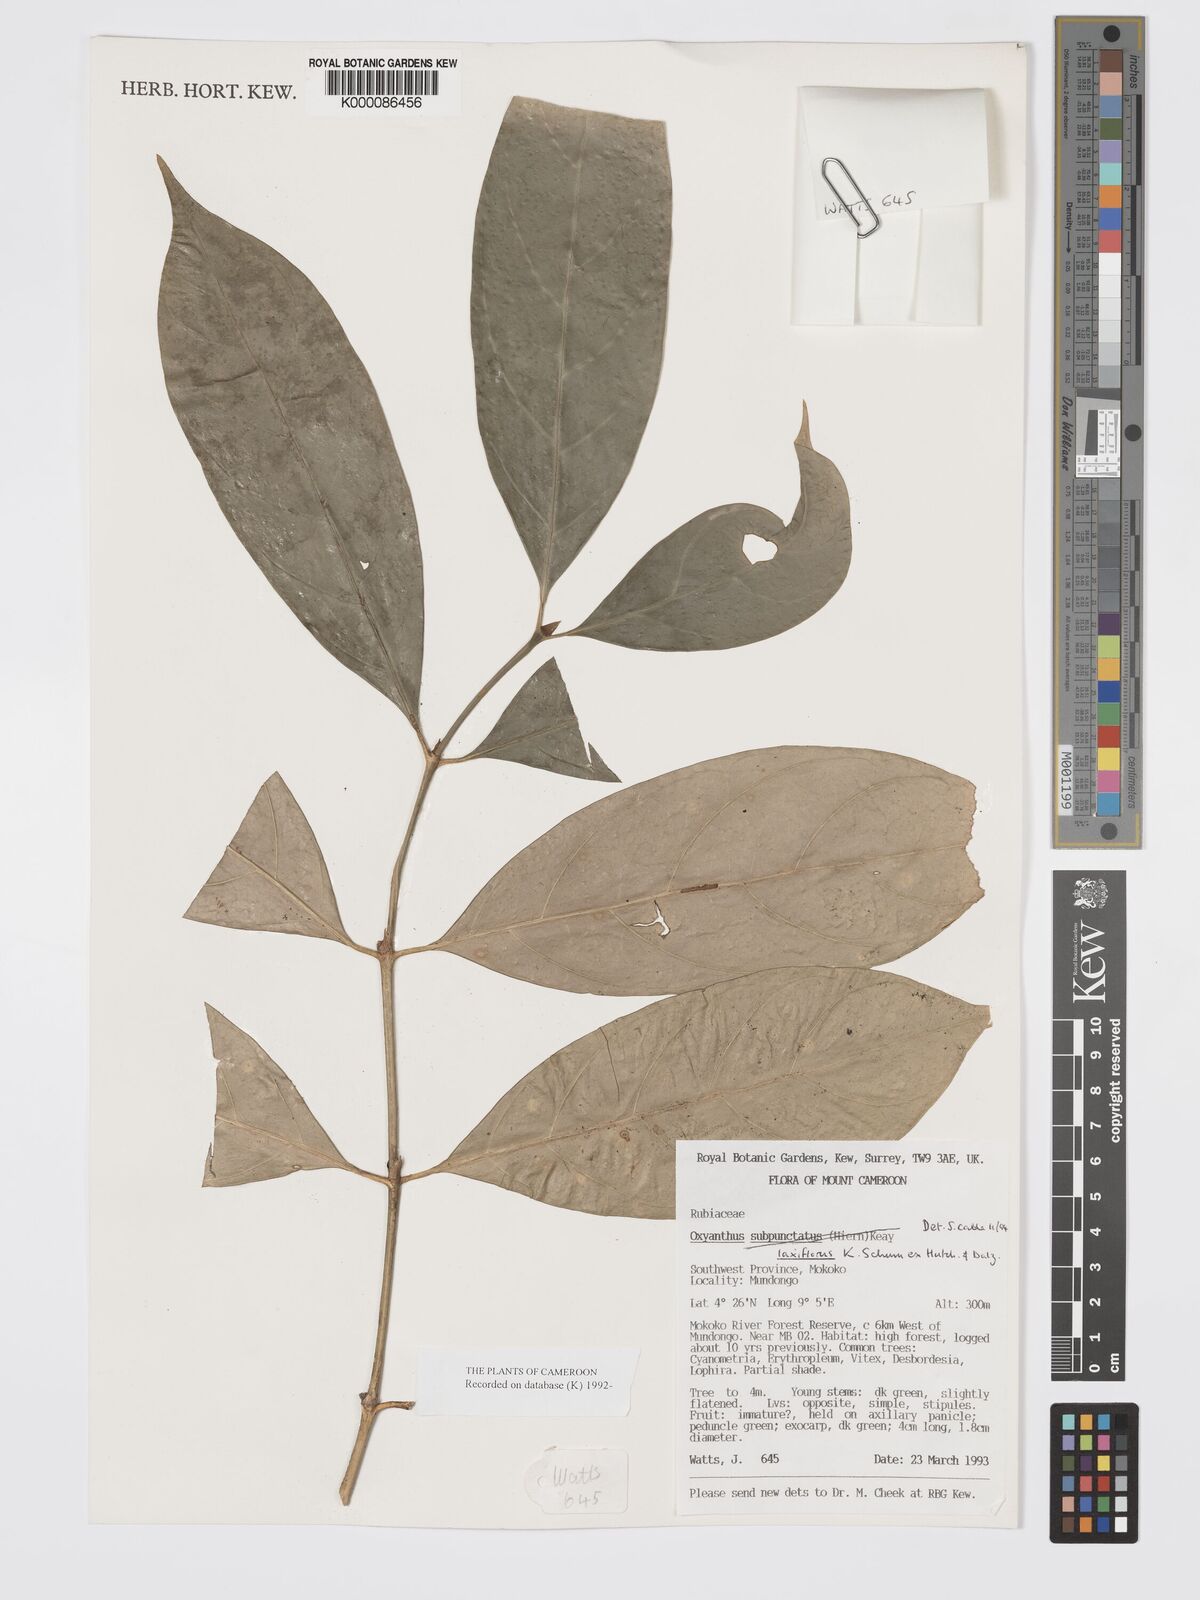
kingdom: Plantae
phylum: Tracheophyta
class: Magnoliopsida
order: Gentianales
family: Rubiaceae
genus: Oxyanthus
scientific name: Oxyanthus laxiflorus
